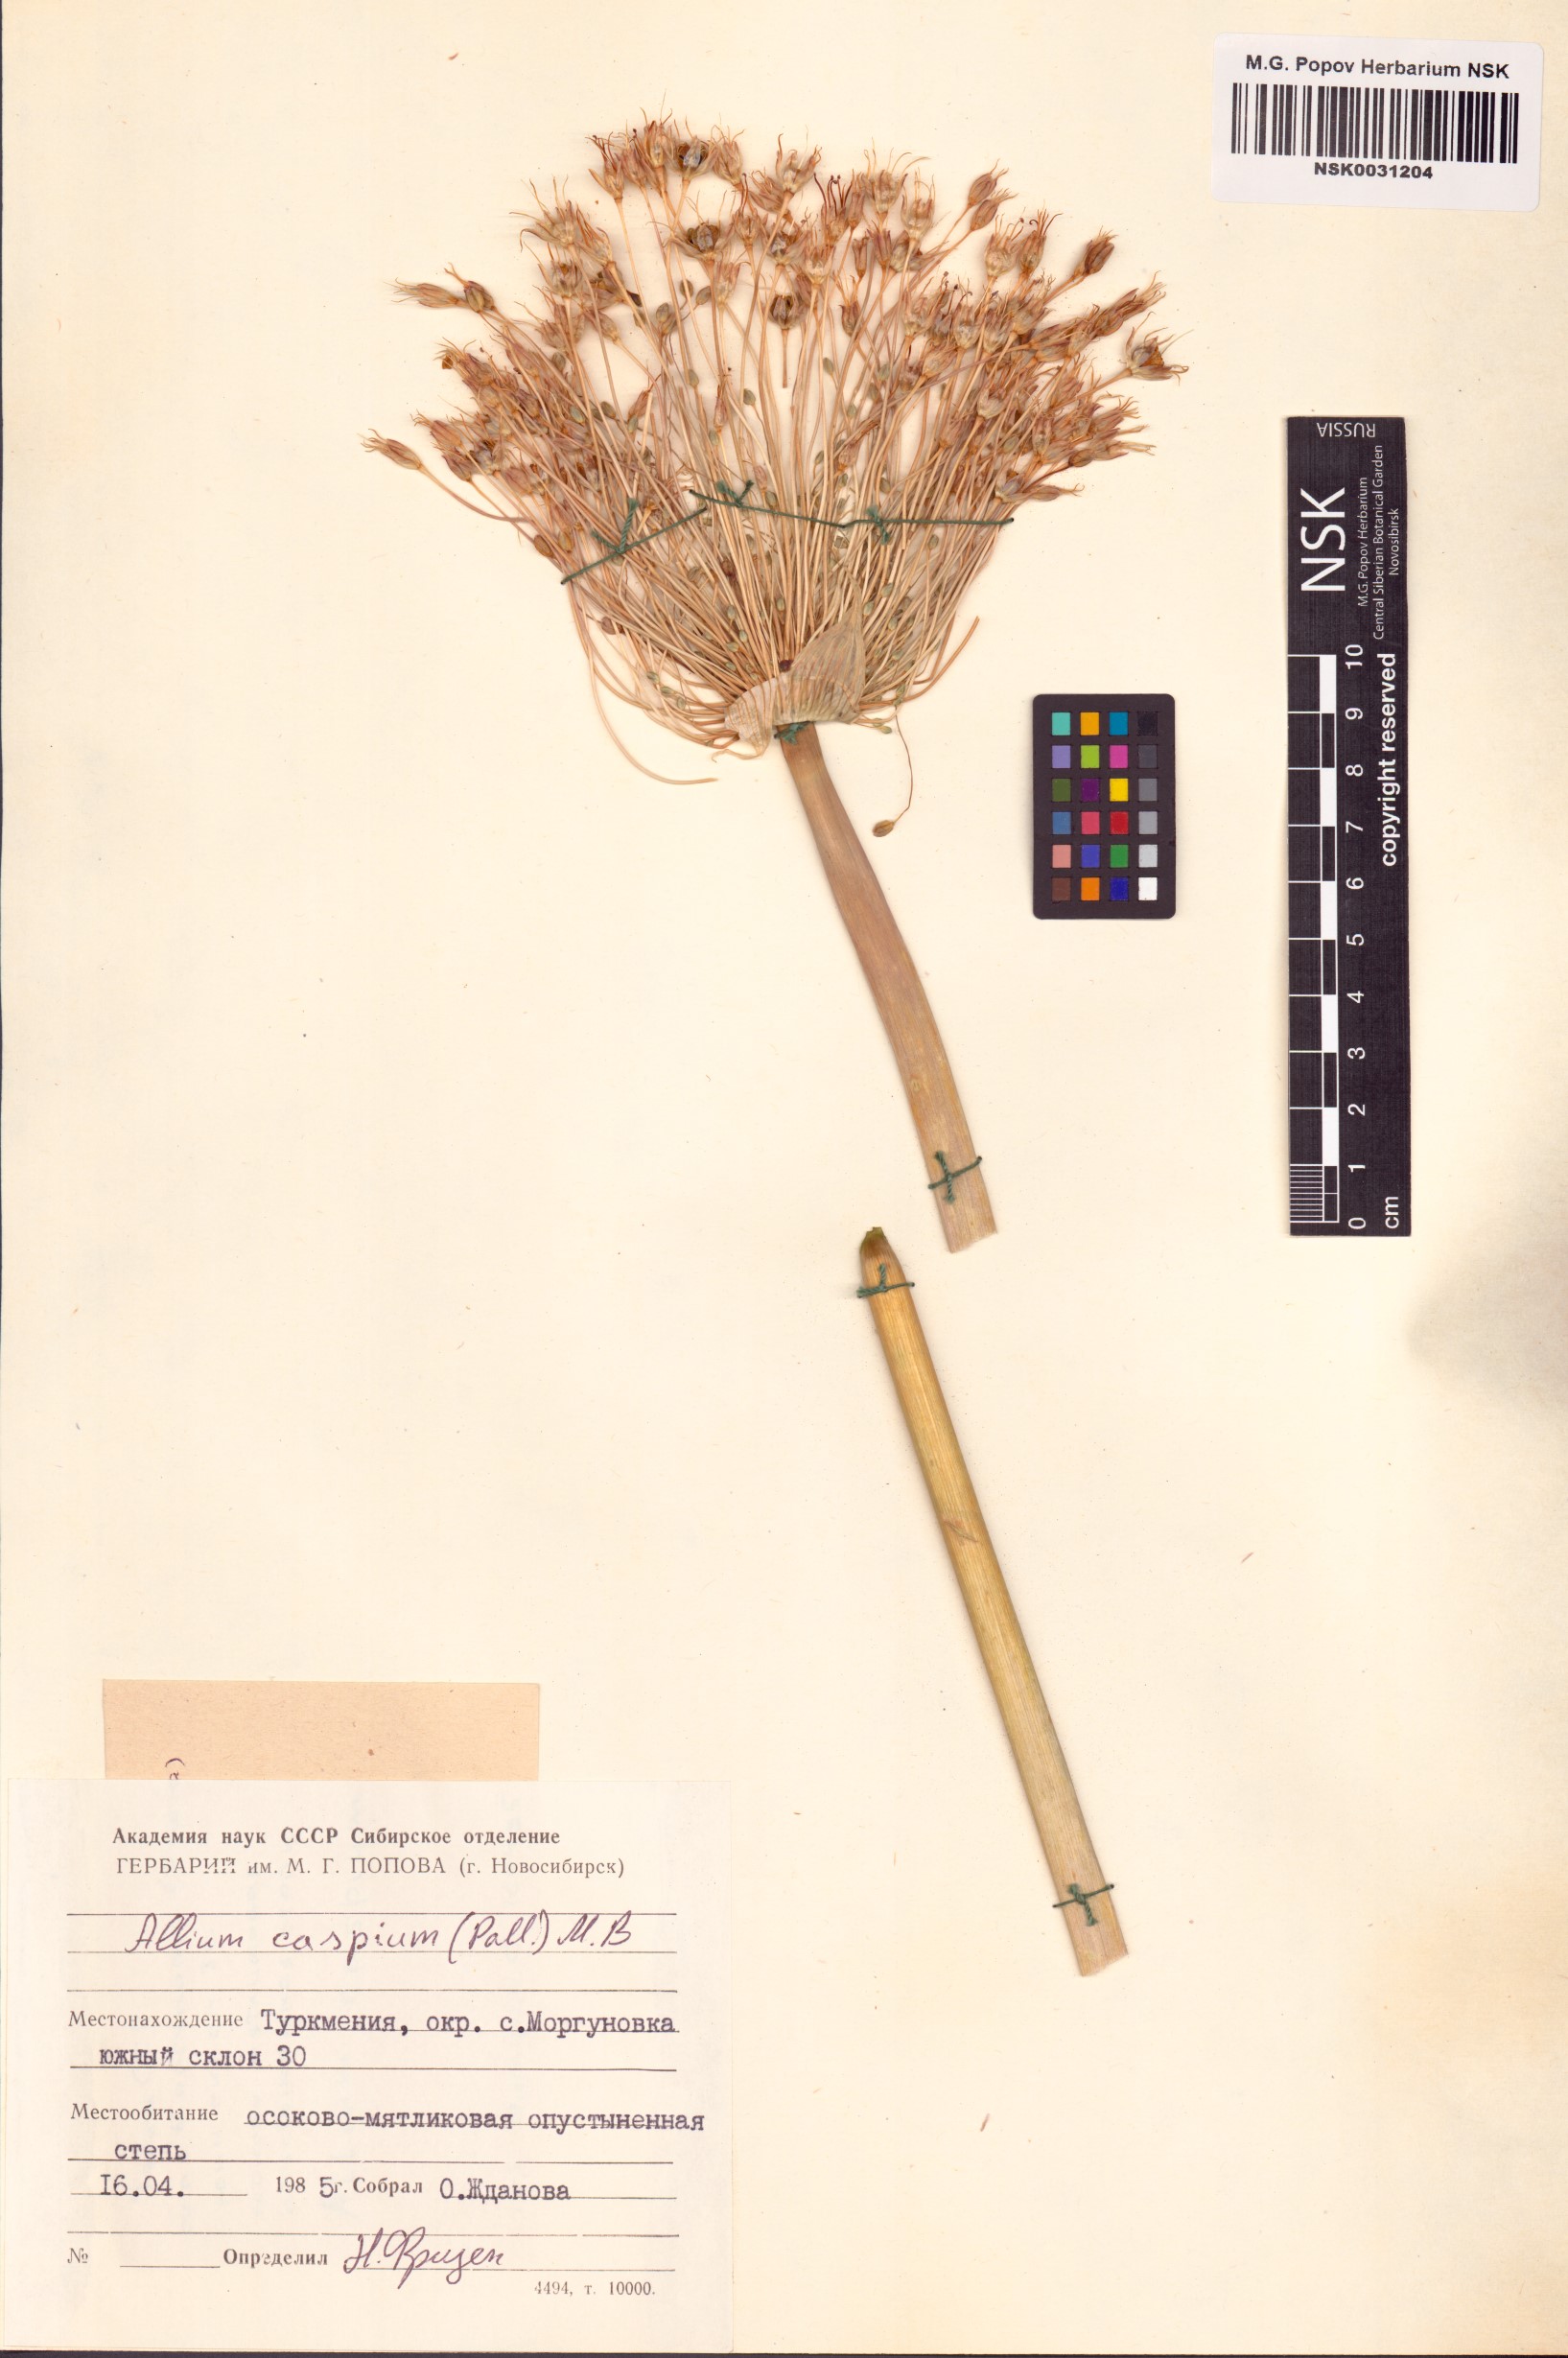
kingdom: Plantae
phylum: Tracheophyta
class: Liliopsida
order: Asparagales
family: Amaryllidaceae
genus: Allium
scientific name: Allium caspium
